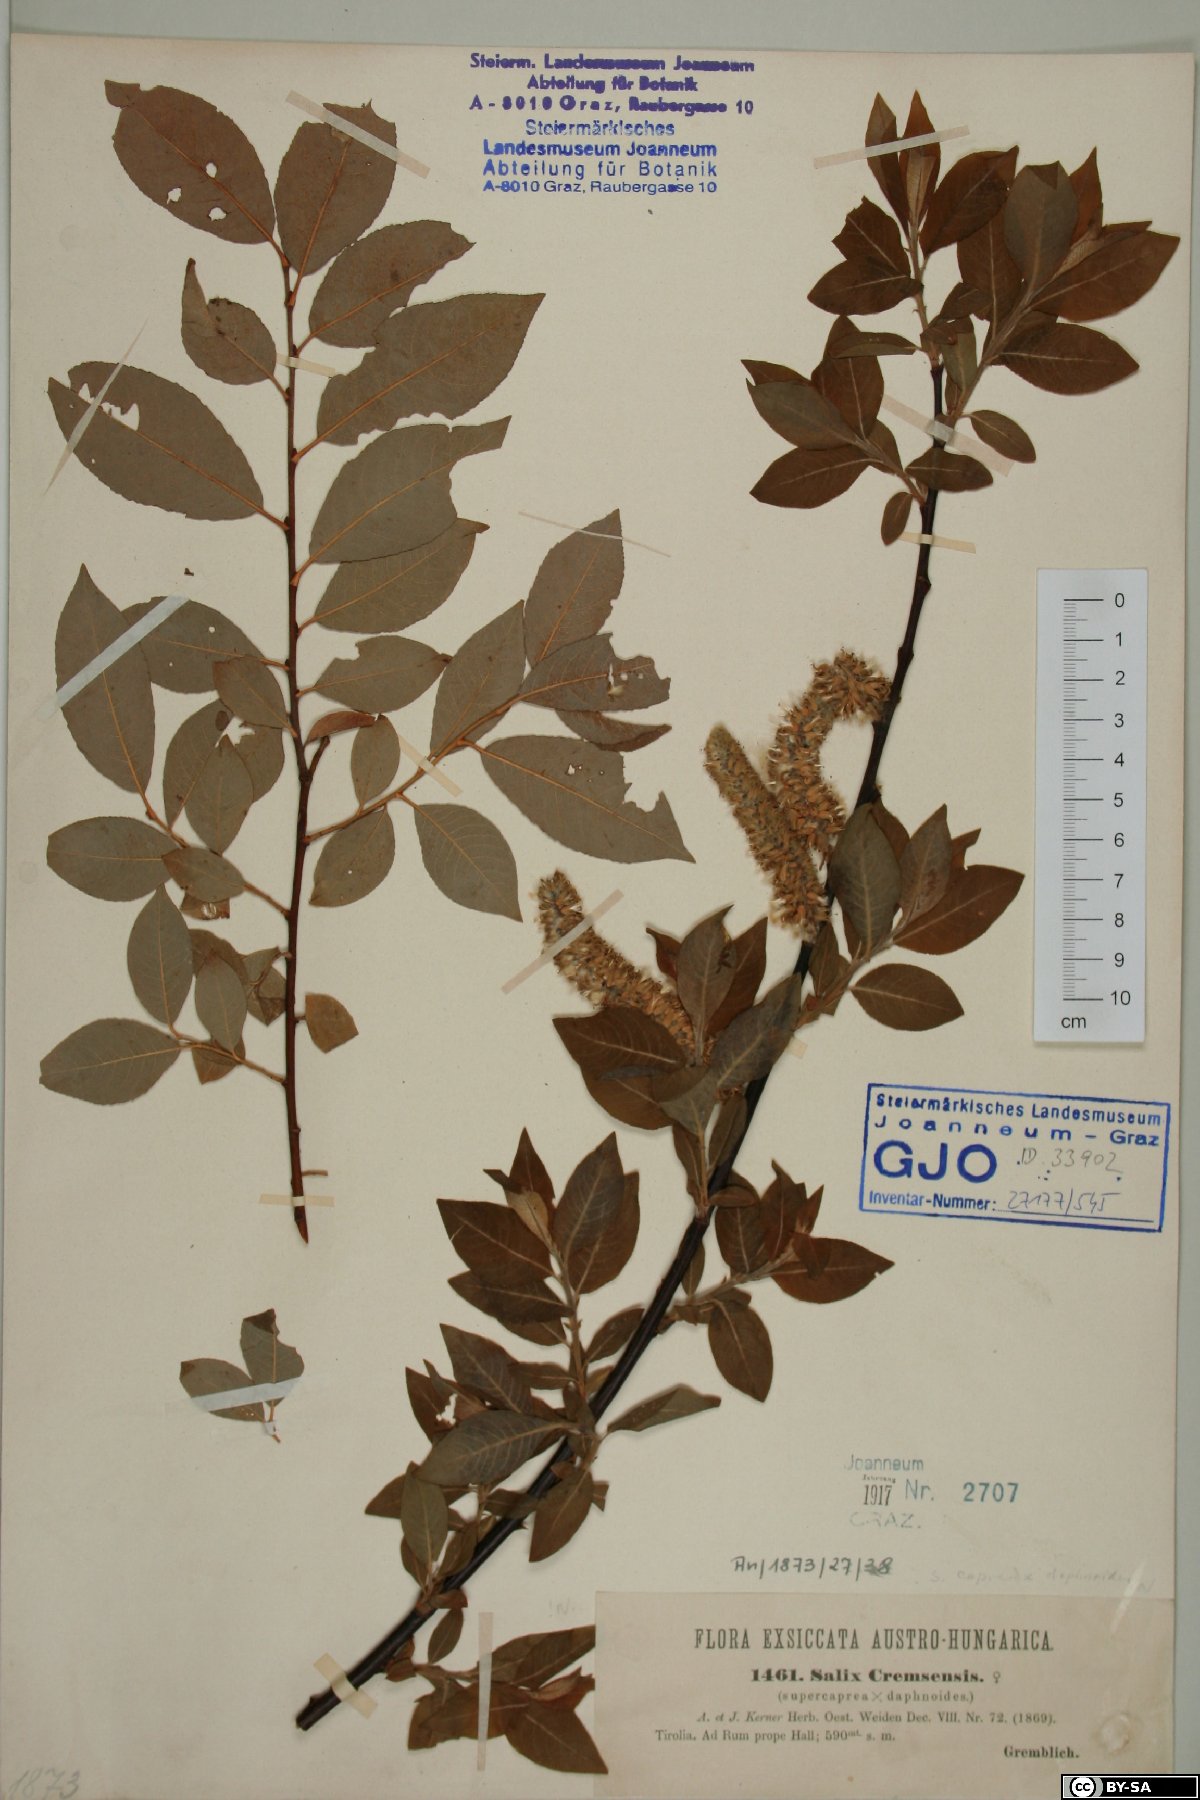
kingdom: Plantae
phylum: Tracheophyta
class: Magnoliopsida
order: Malpighiales
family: Salicaceae
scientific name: Salicaceae
